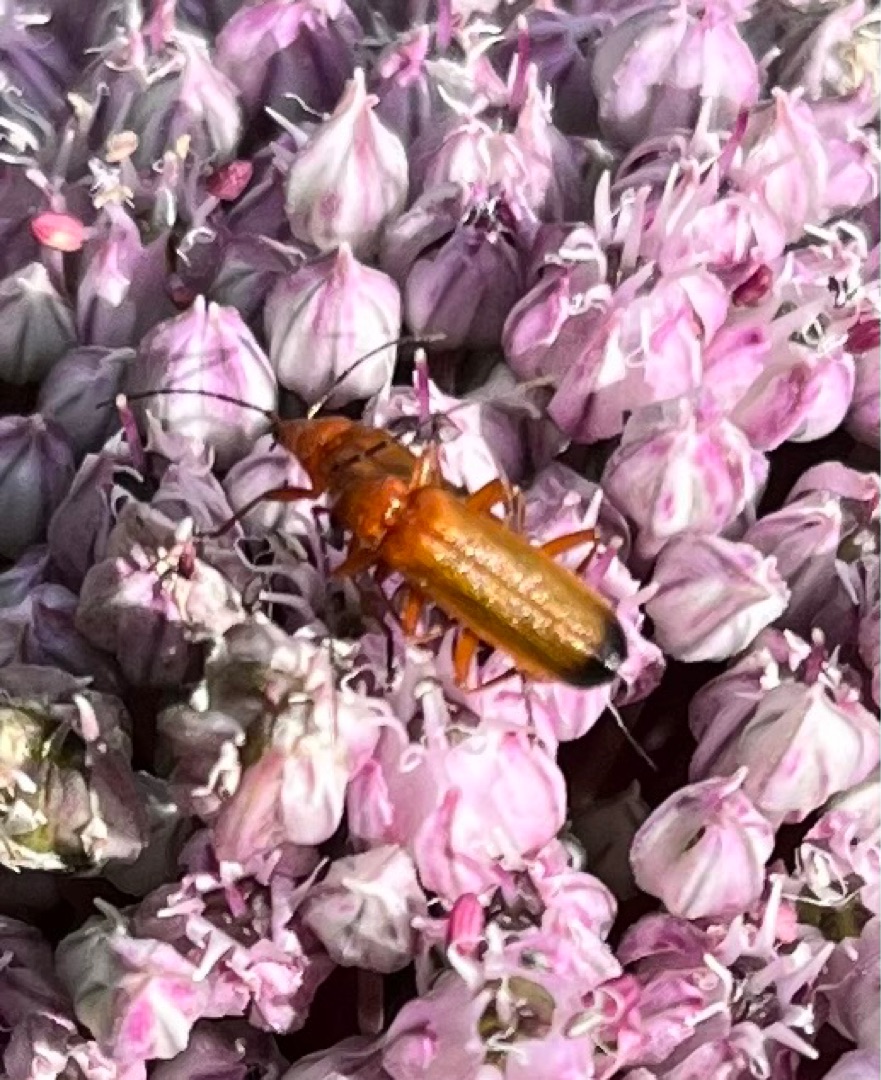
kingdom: Animalia
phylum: Arthropoda
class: Insecta
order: Coleoptera
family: Cantharidae
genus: Rhagonycha
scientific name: Rhagonycha fulva
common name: Præstebille
